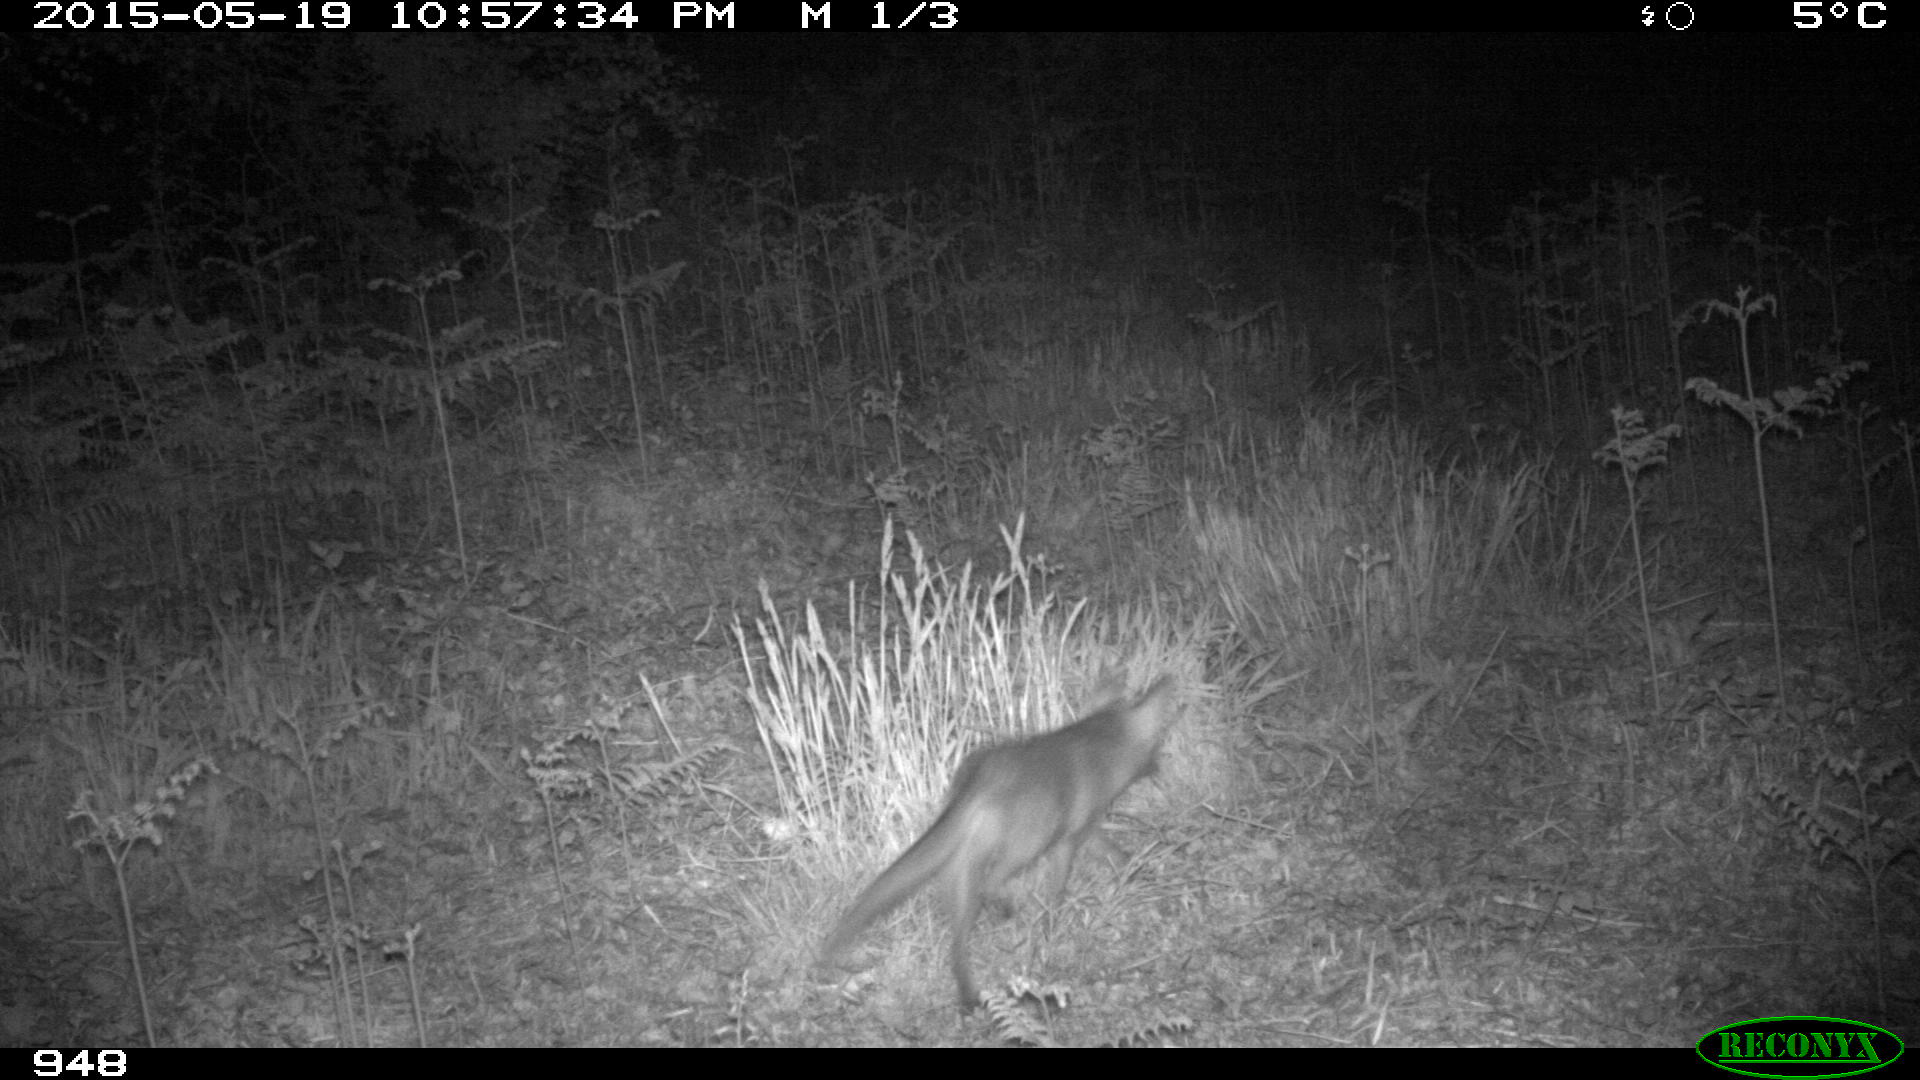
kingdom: Animalia
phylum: Chordata
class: Mammalia
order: Carnivora
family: Canidae
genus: Vulpes
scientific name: Vulpes vulpes
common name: Red fox
